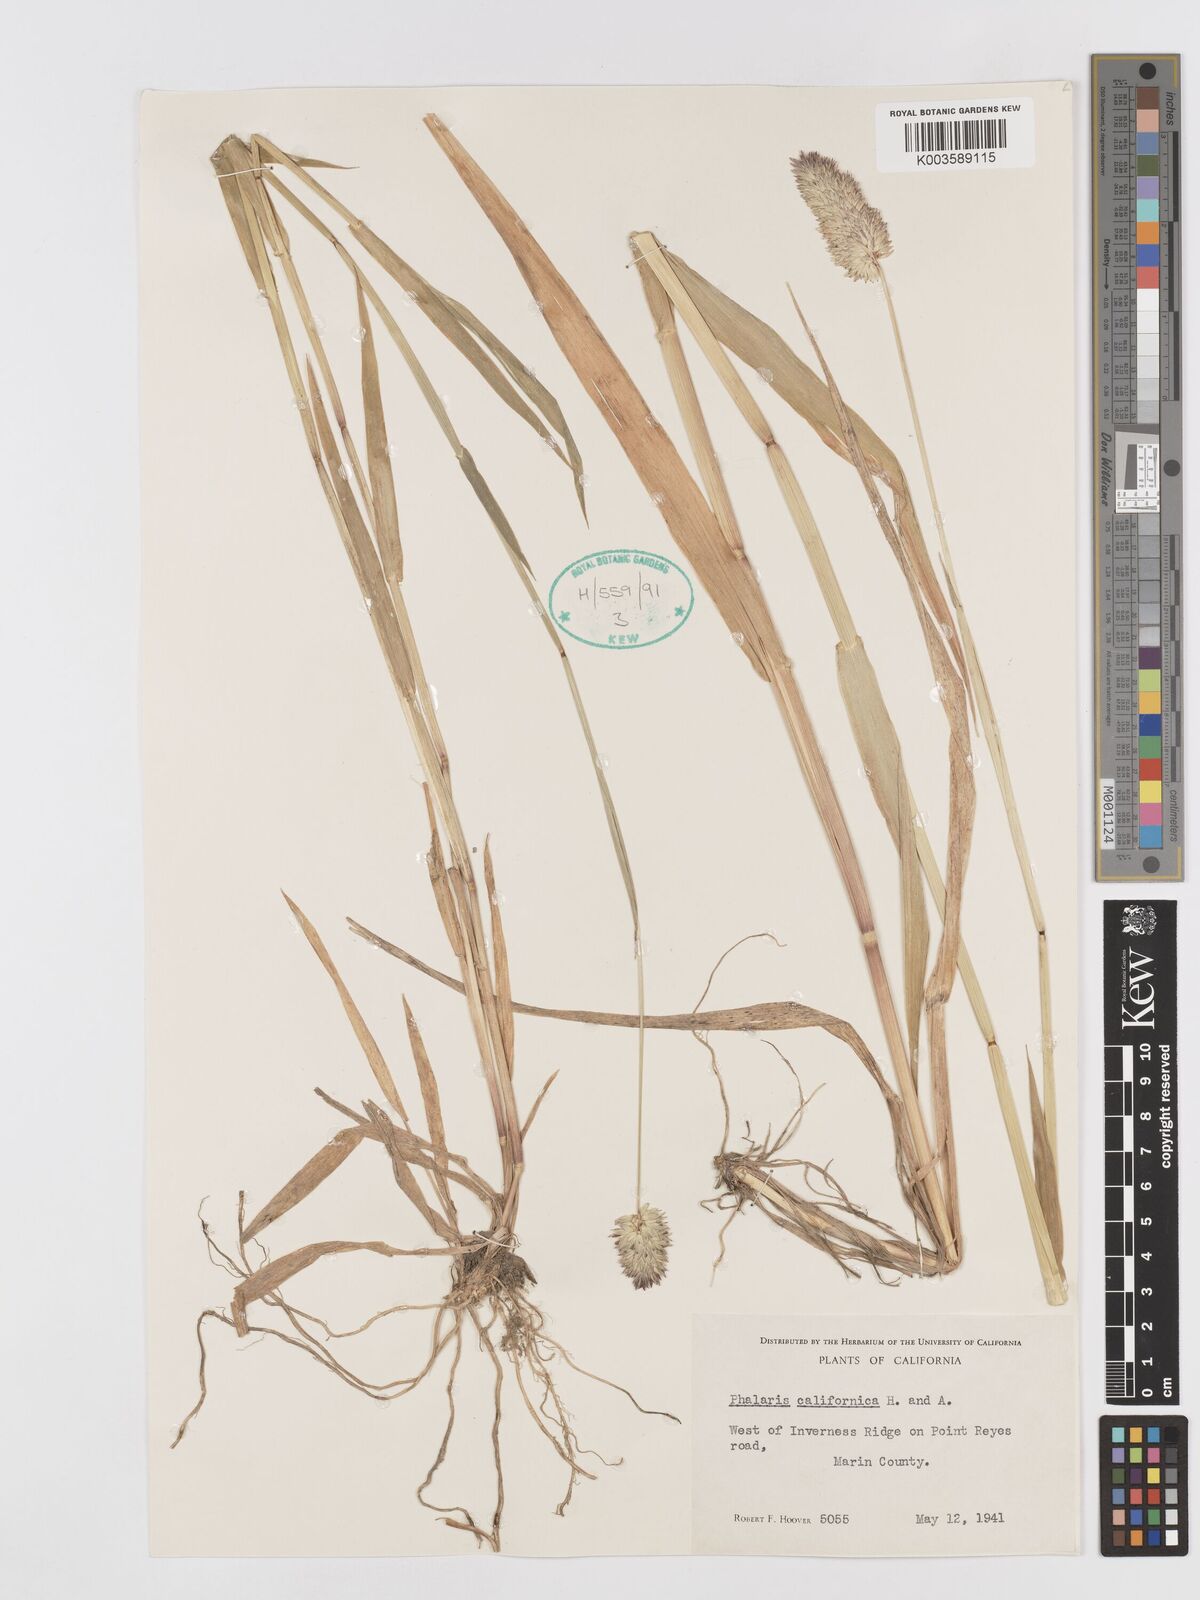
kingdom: Plantae
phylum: Tracheophyta
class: Liliopsida
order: Poales
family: Poaceae
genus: Phalaris
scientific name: Phalaris californica
